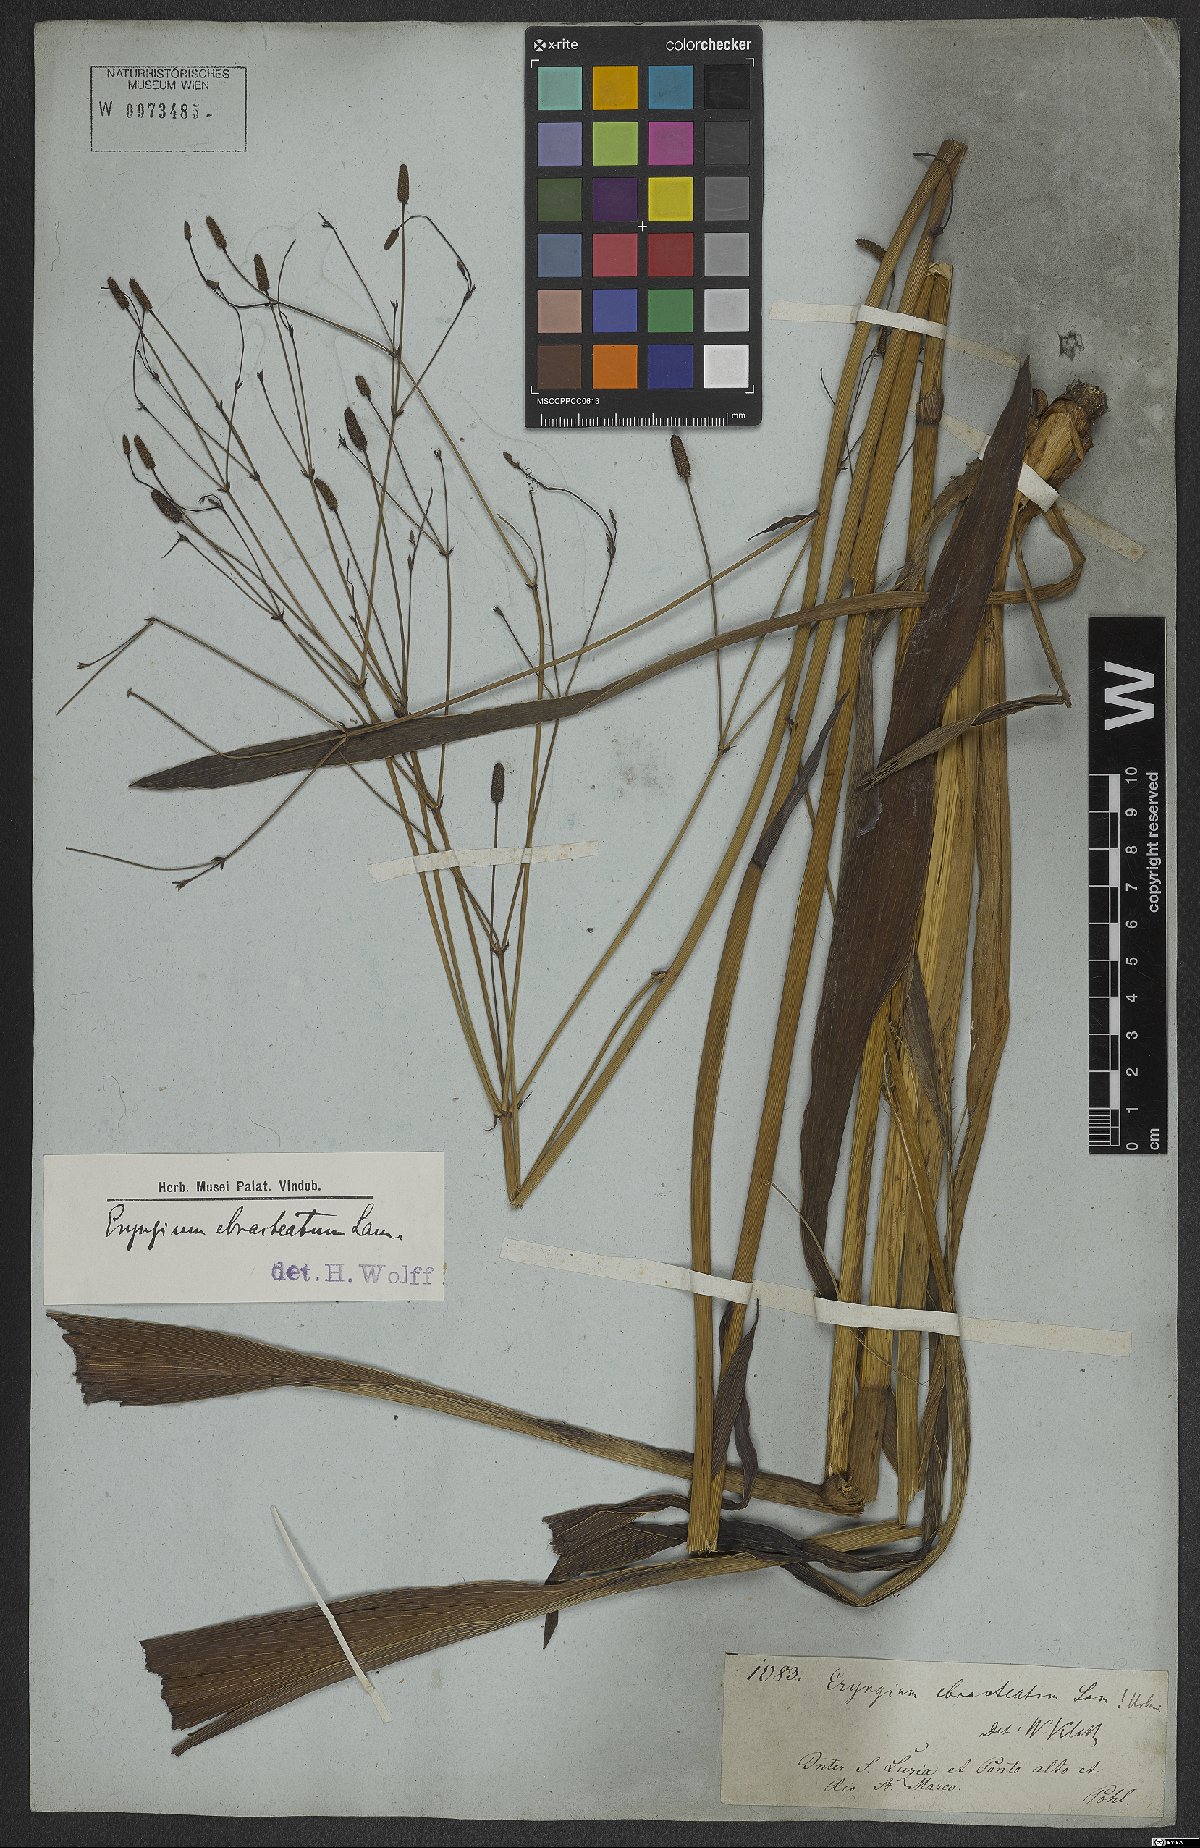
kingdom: Plantae
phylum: Tracheophyta
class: Magnoliopsida
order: Apiales
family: Apiaceae
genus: Eryngium
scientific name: Eryngium ebracteatum
